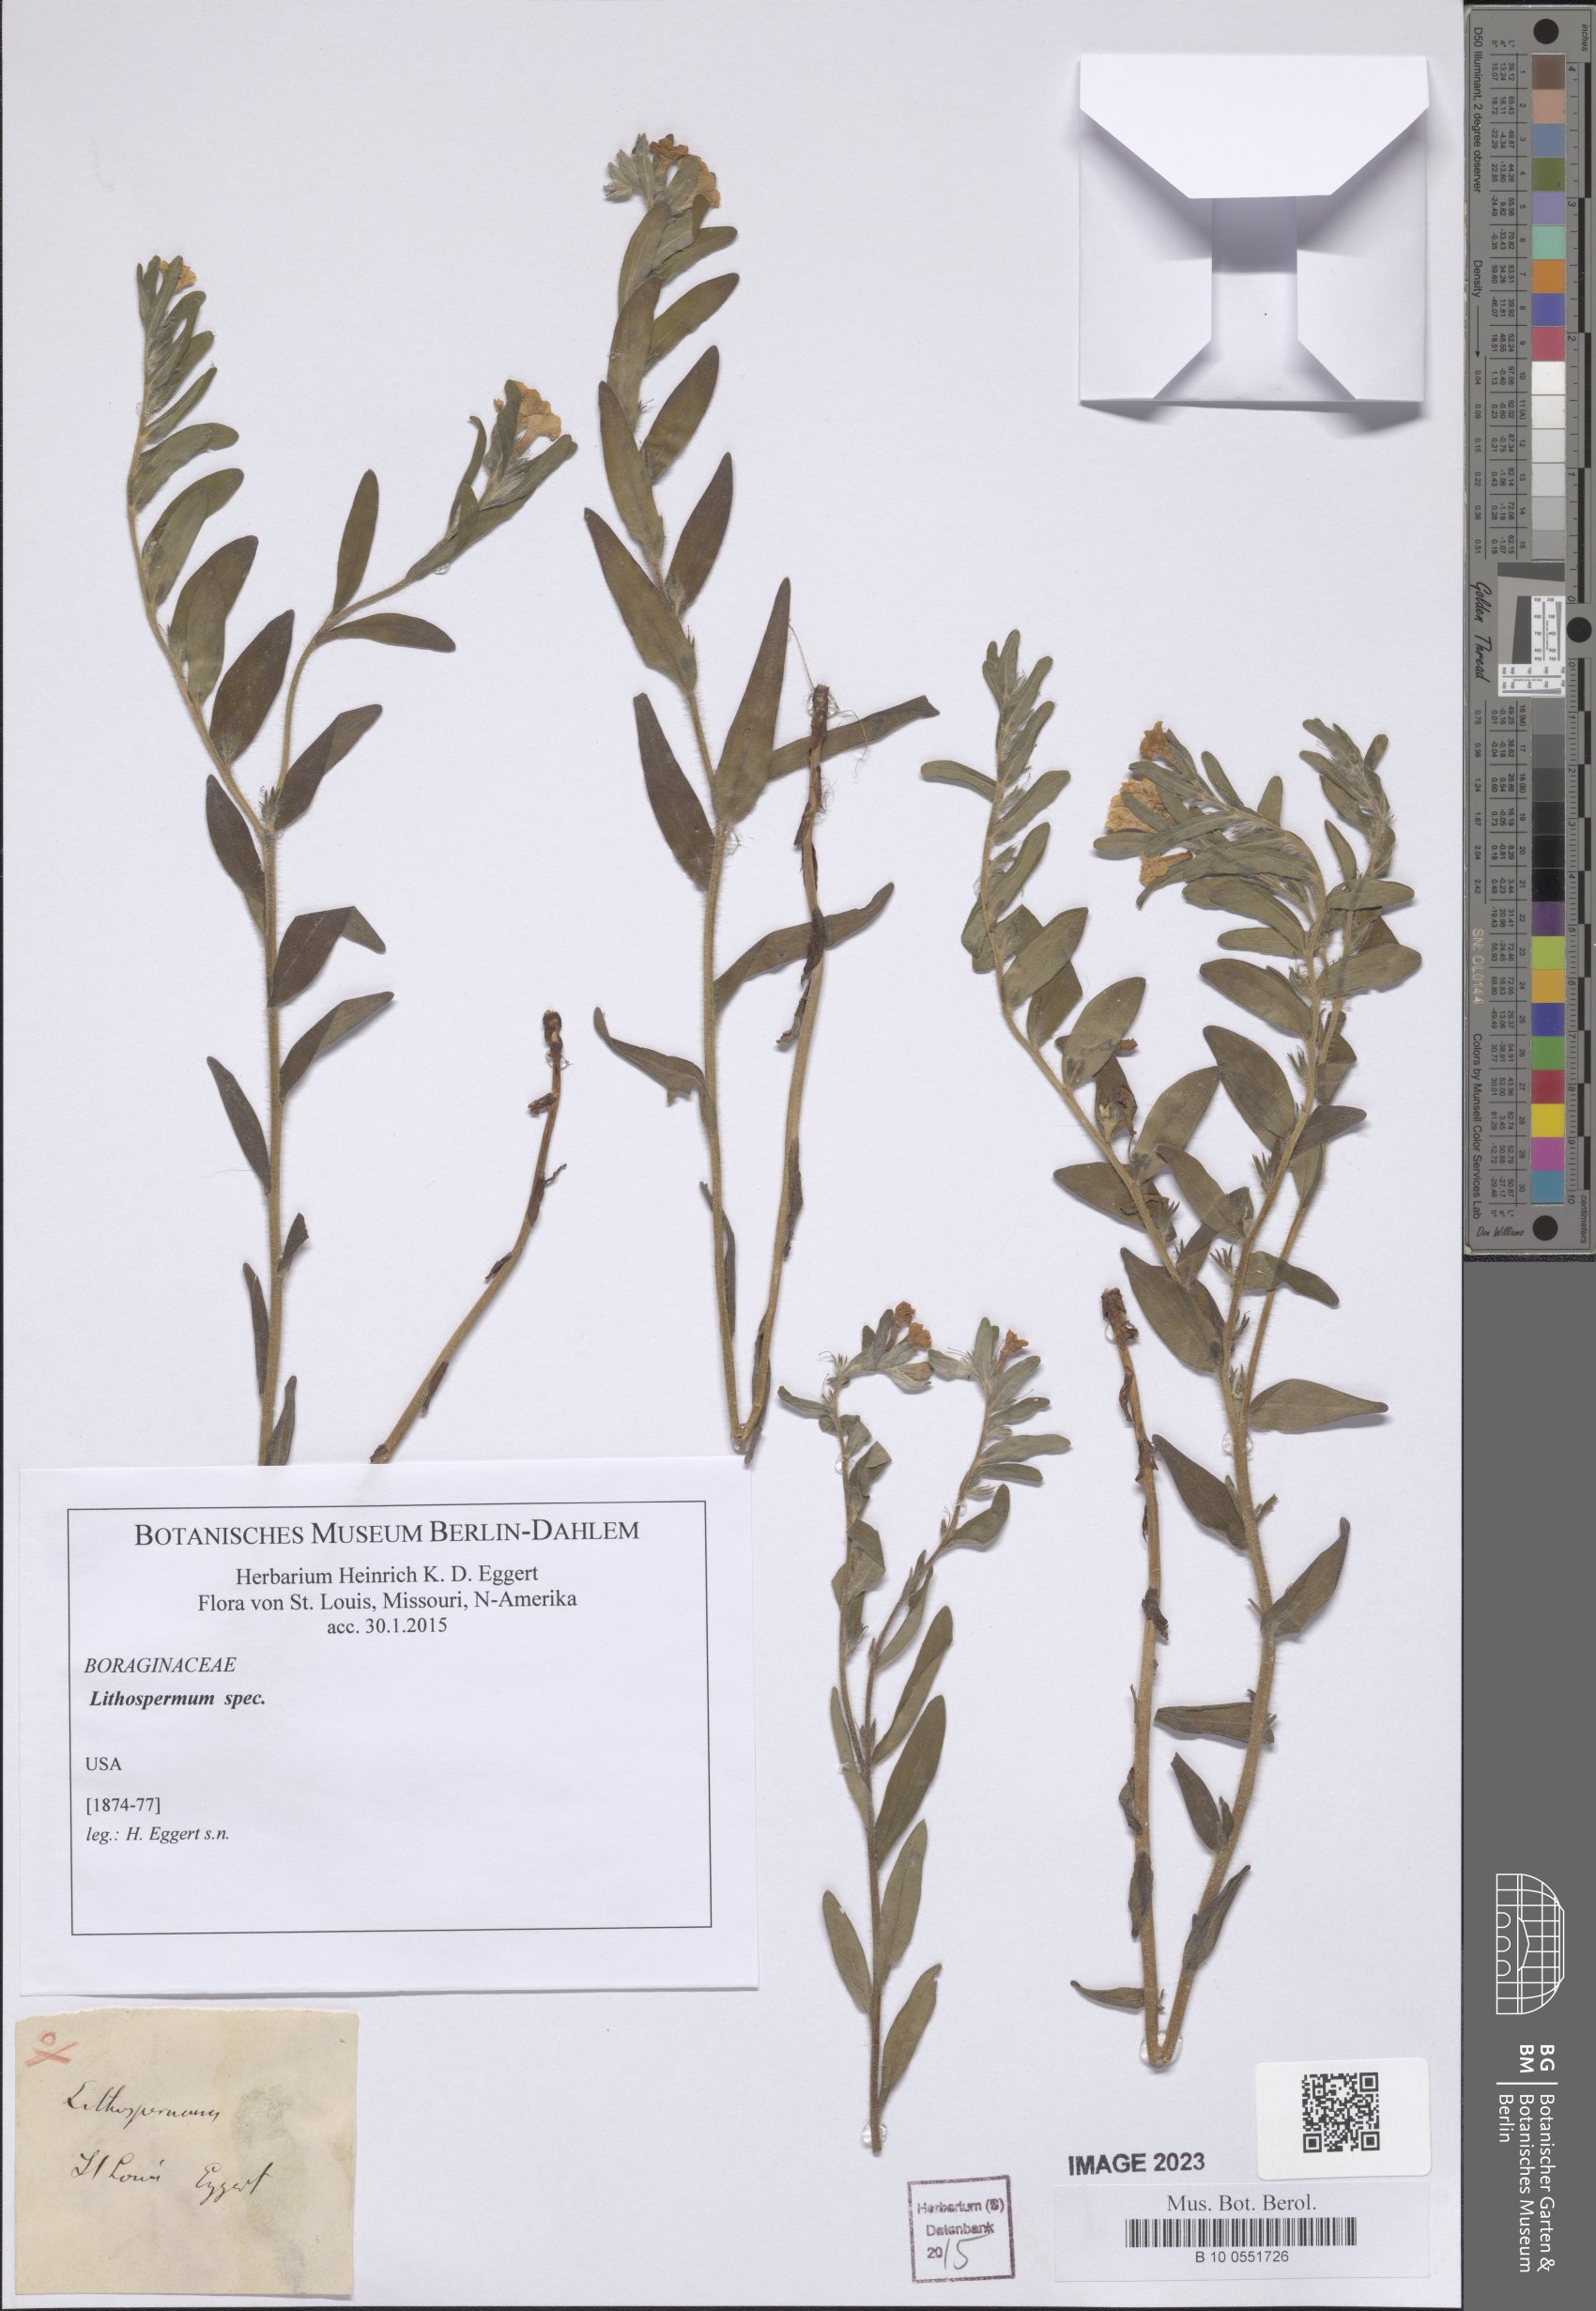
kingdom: Plantae
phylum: Tracheophyta
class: Magnoliopsida
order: Boraginales
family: Boraginaceae
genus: Lithospermum
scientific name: Lithospermum
